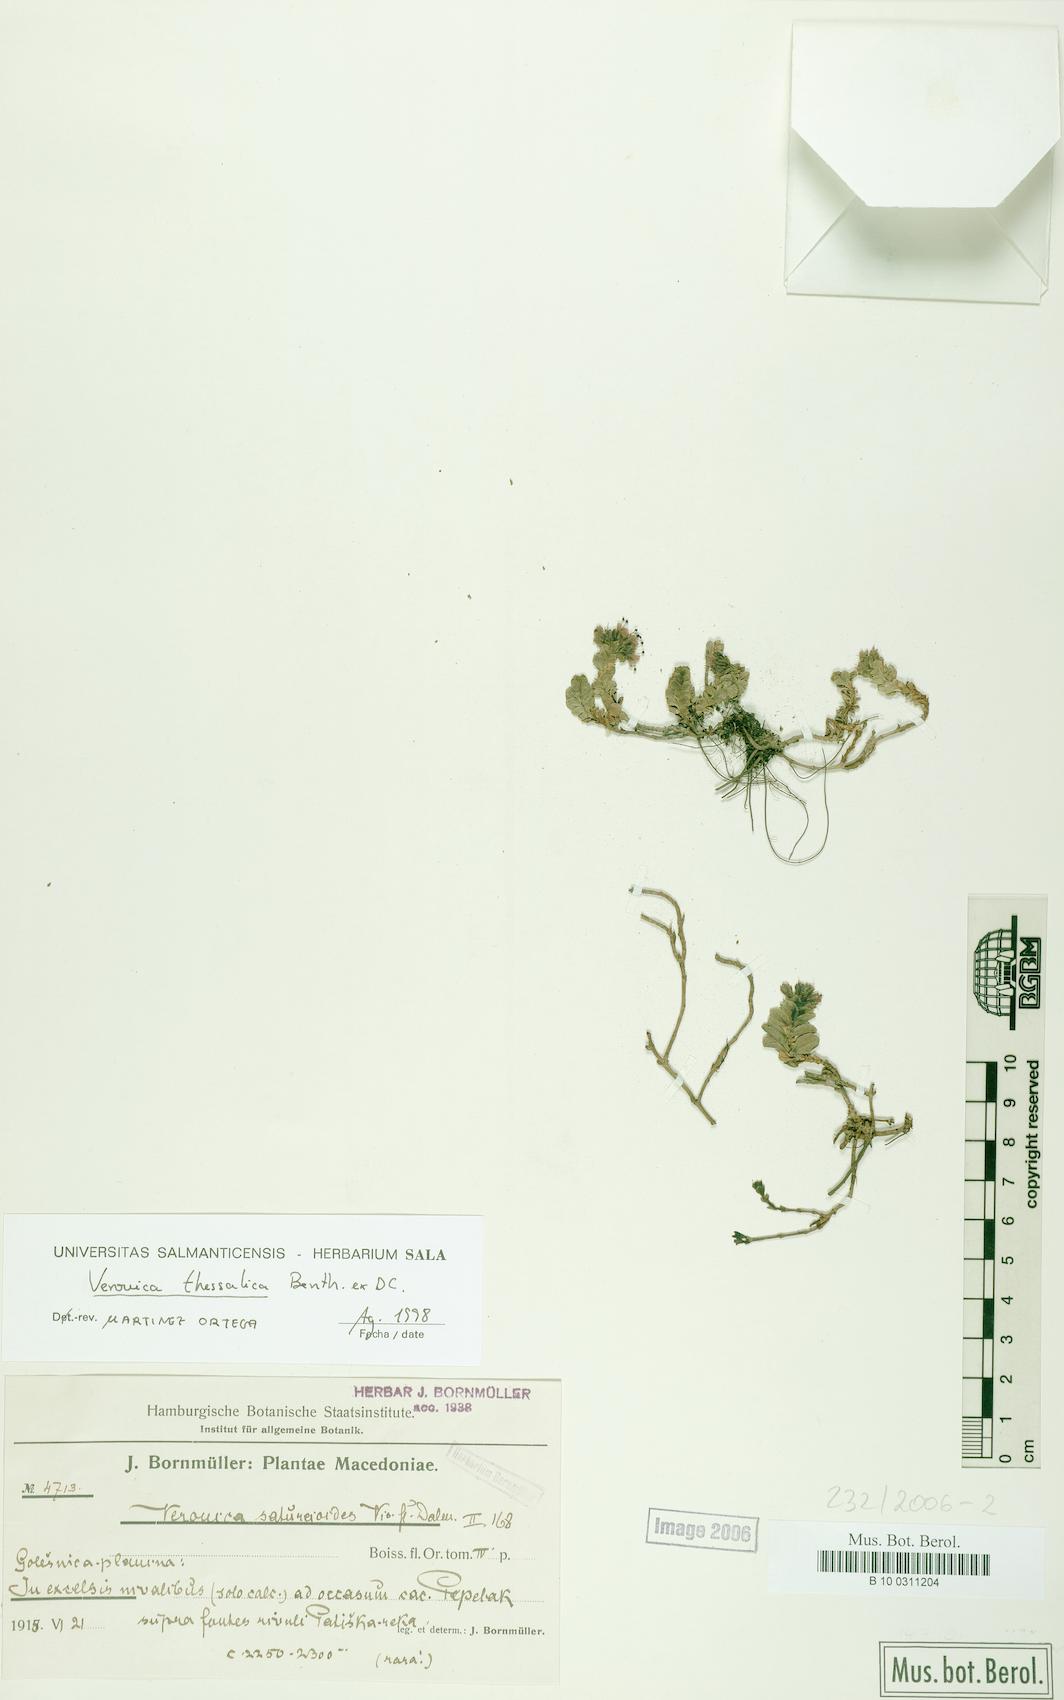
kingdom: Plantae
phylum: Tracheophyta
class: Magnoliopsida
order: Lamiales
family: Plantaginaceae
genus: Veronica
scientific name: Veronica thessalica
